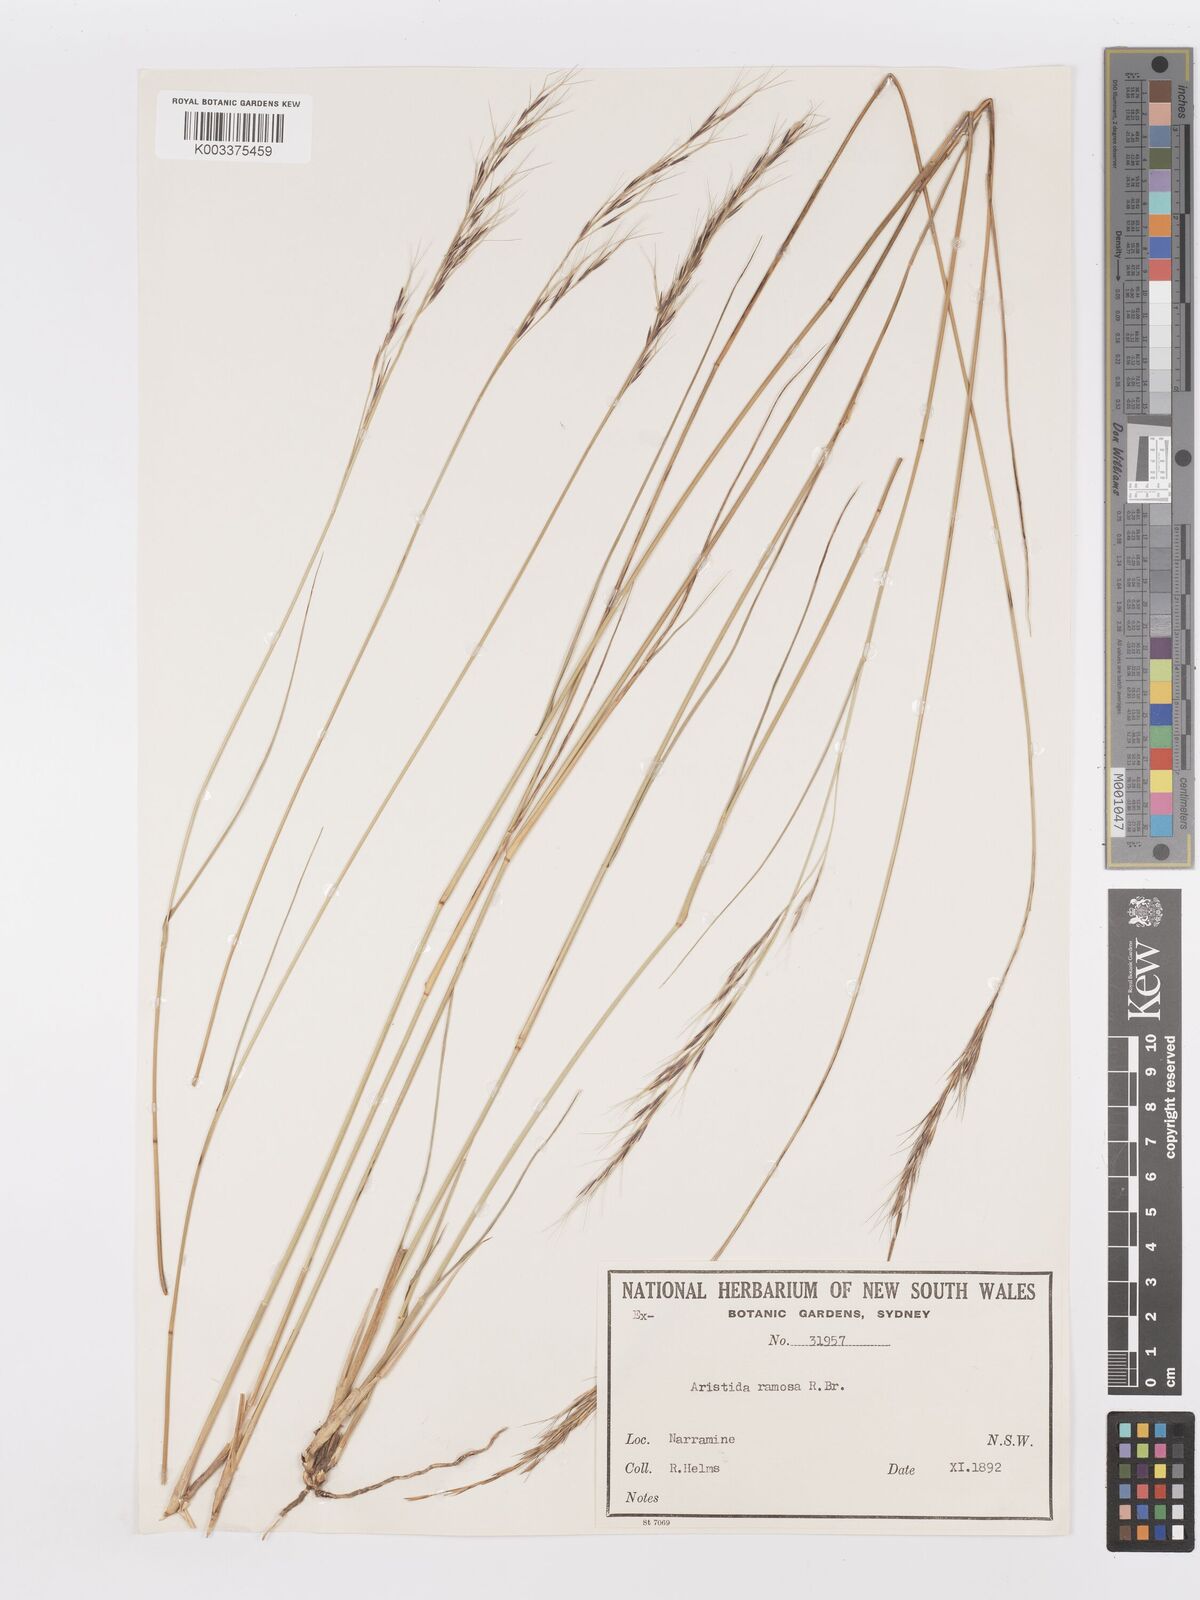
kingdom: Plantae
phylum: Tracheophyta
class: Liliopsida
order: Poales
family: Poaceae
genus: Aristida
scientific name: Aristida ramosa
